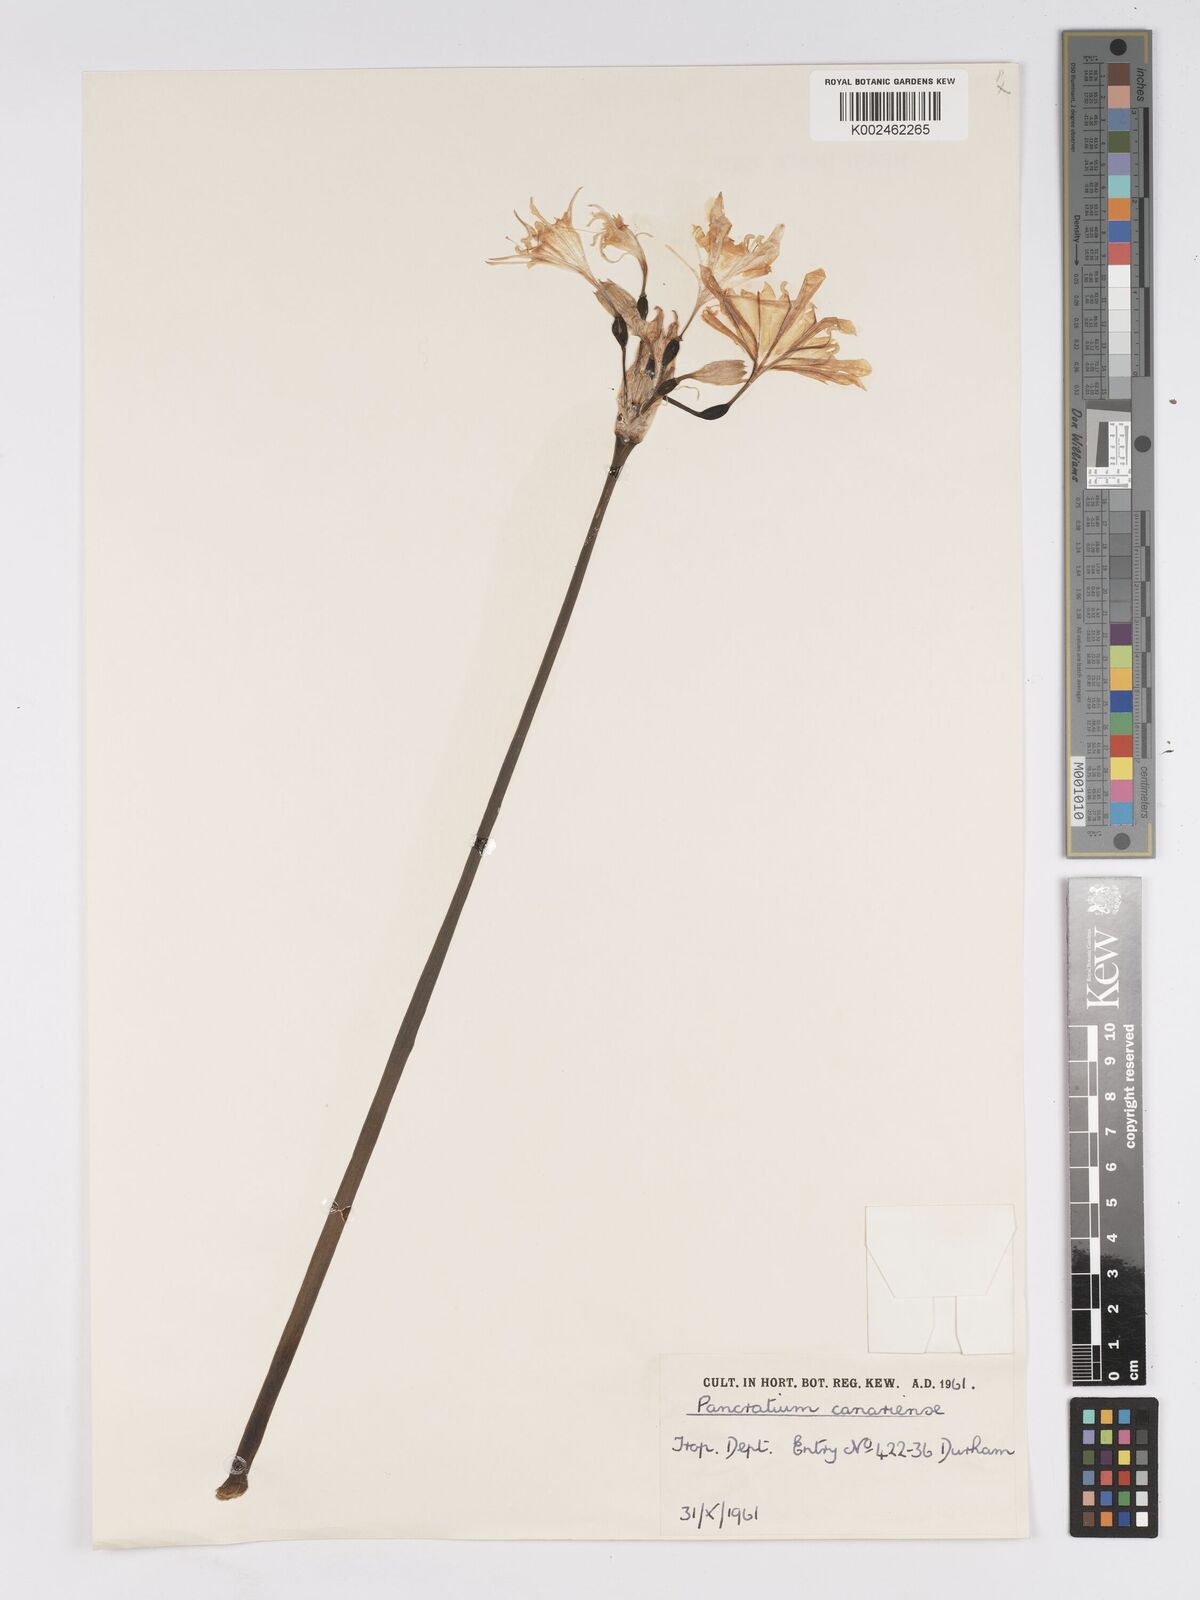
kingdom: Plantae
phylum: Tracheophyta
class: Liliopsida
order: Asparagales
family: Amaryllidaceae
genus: Pancratium
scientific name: Pancratium canariense
